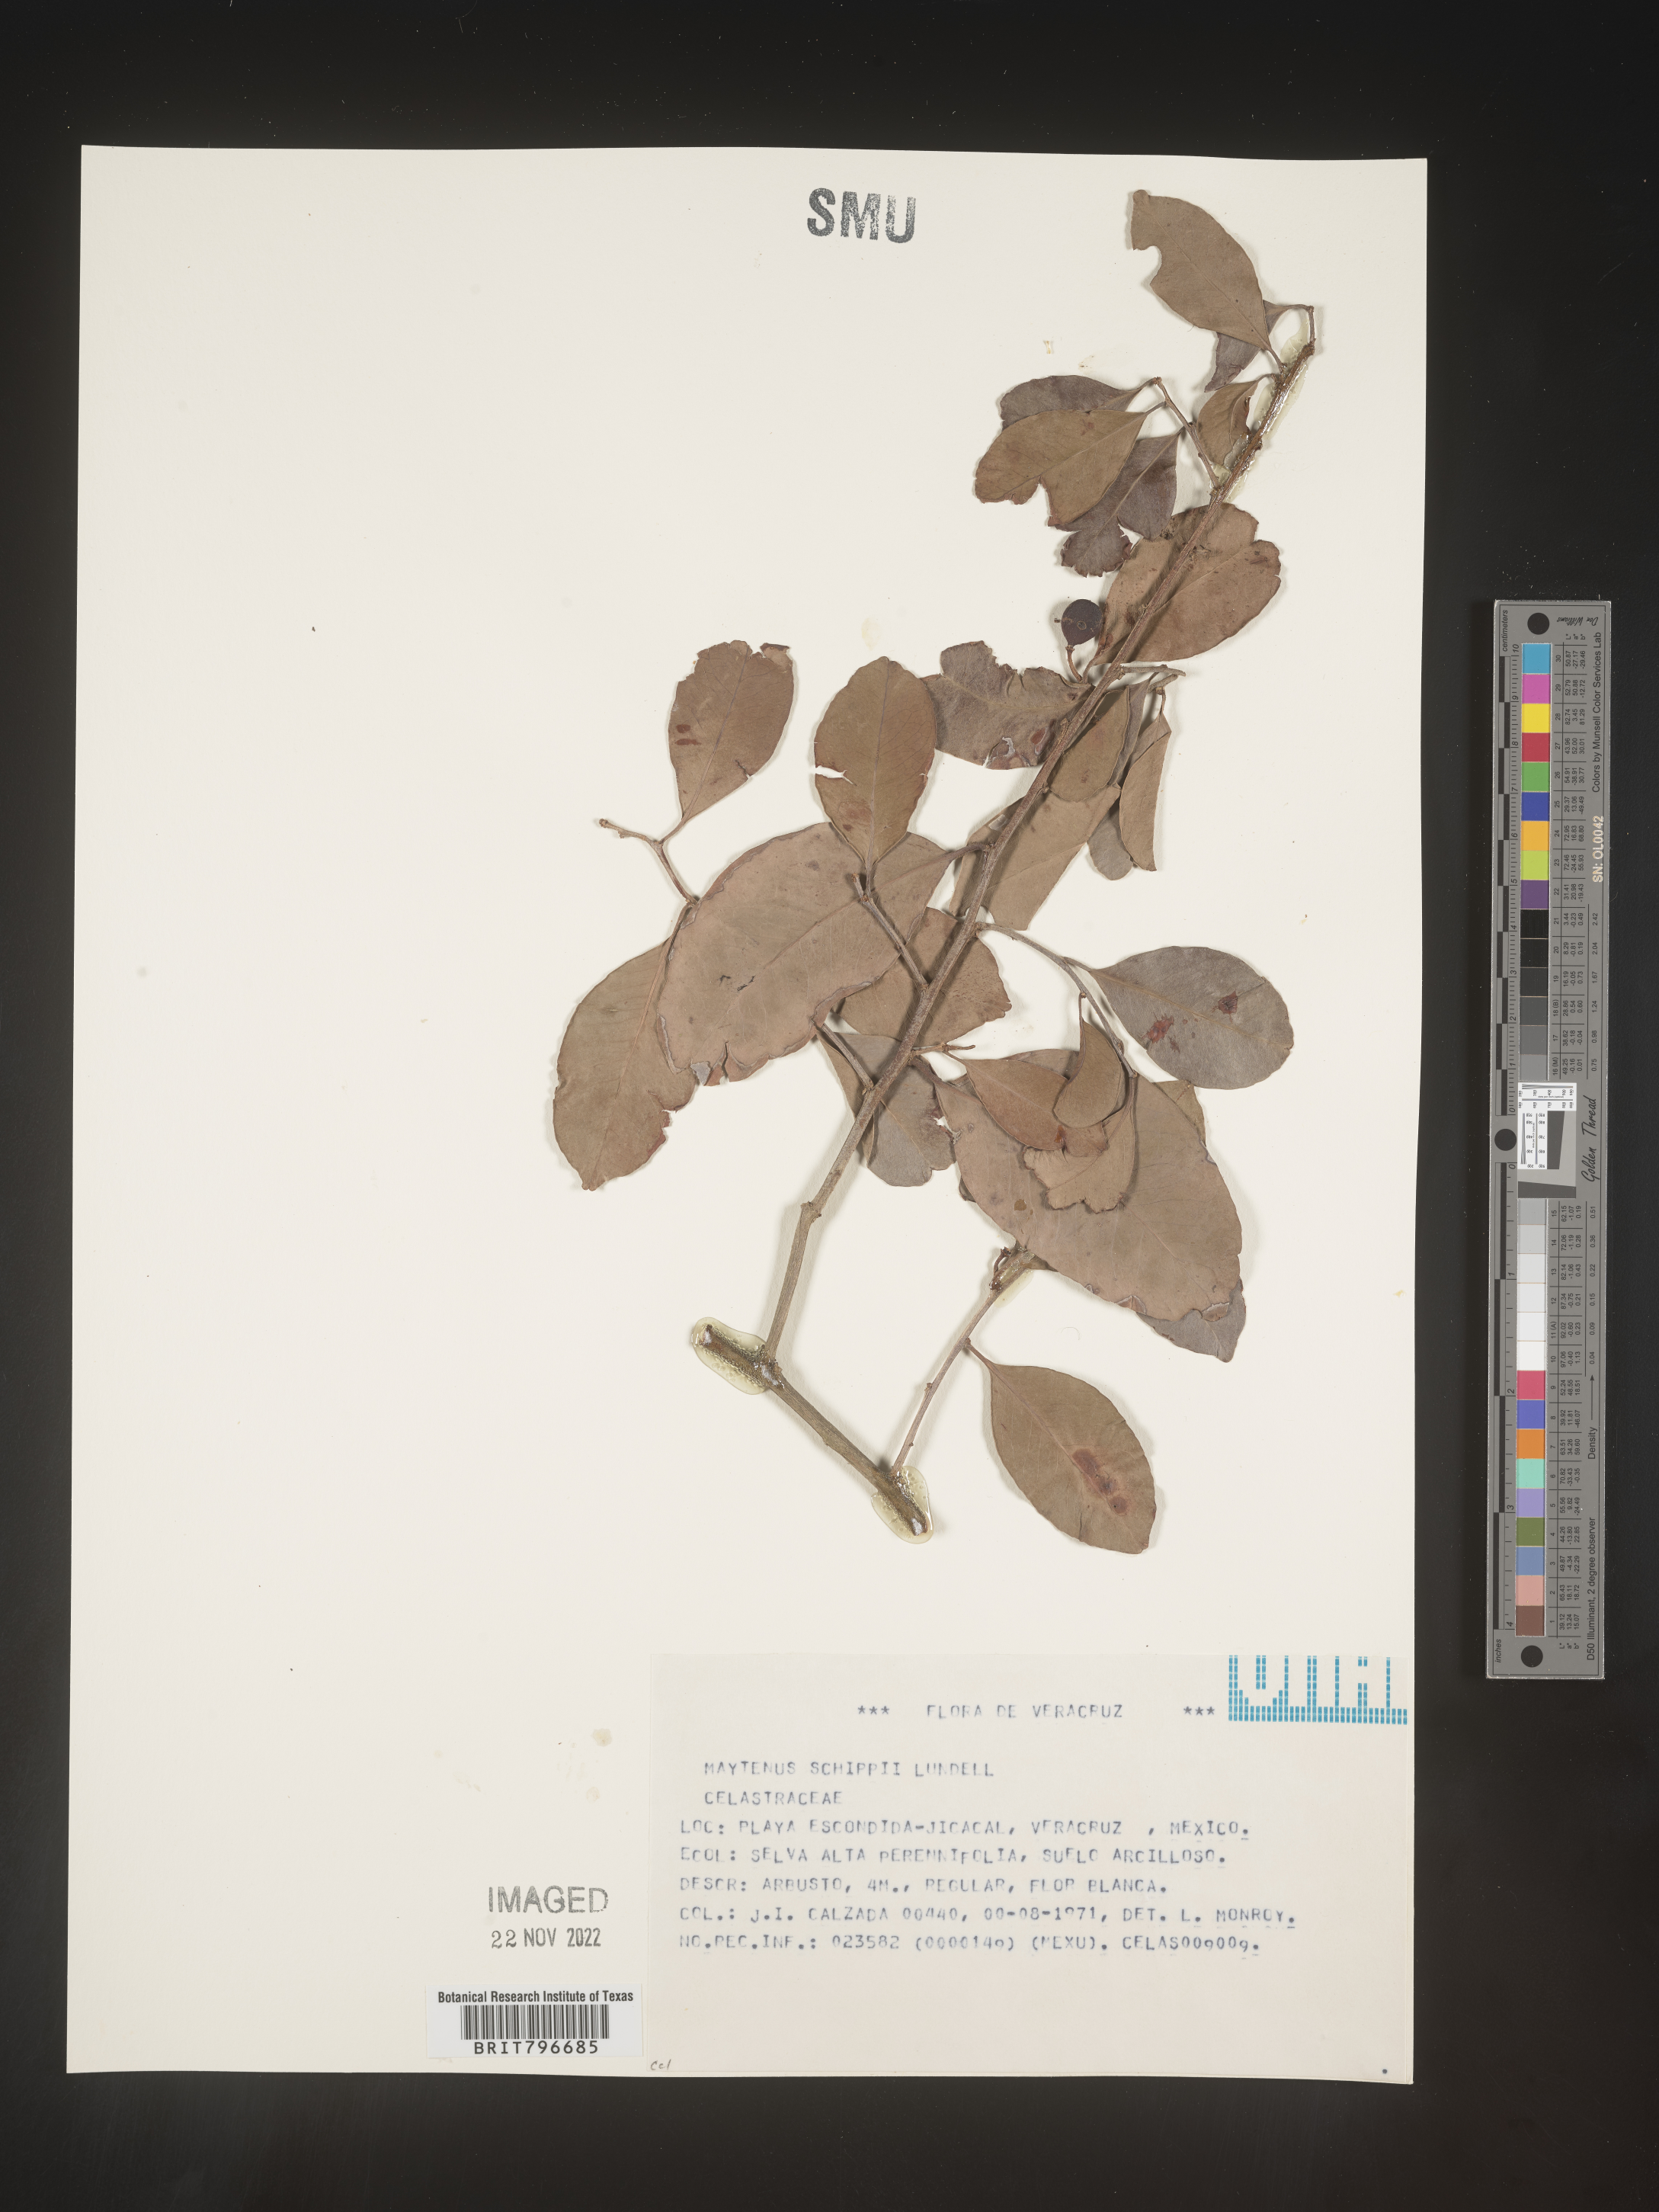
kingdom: Plantae
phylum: Tracheophyta
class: Magnoliopsida
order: Celastrales
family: Celastraceae
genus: Monteverdia
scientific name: Monteverdia schippii
